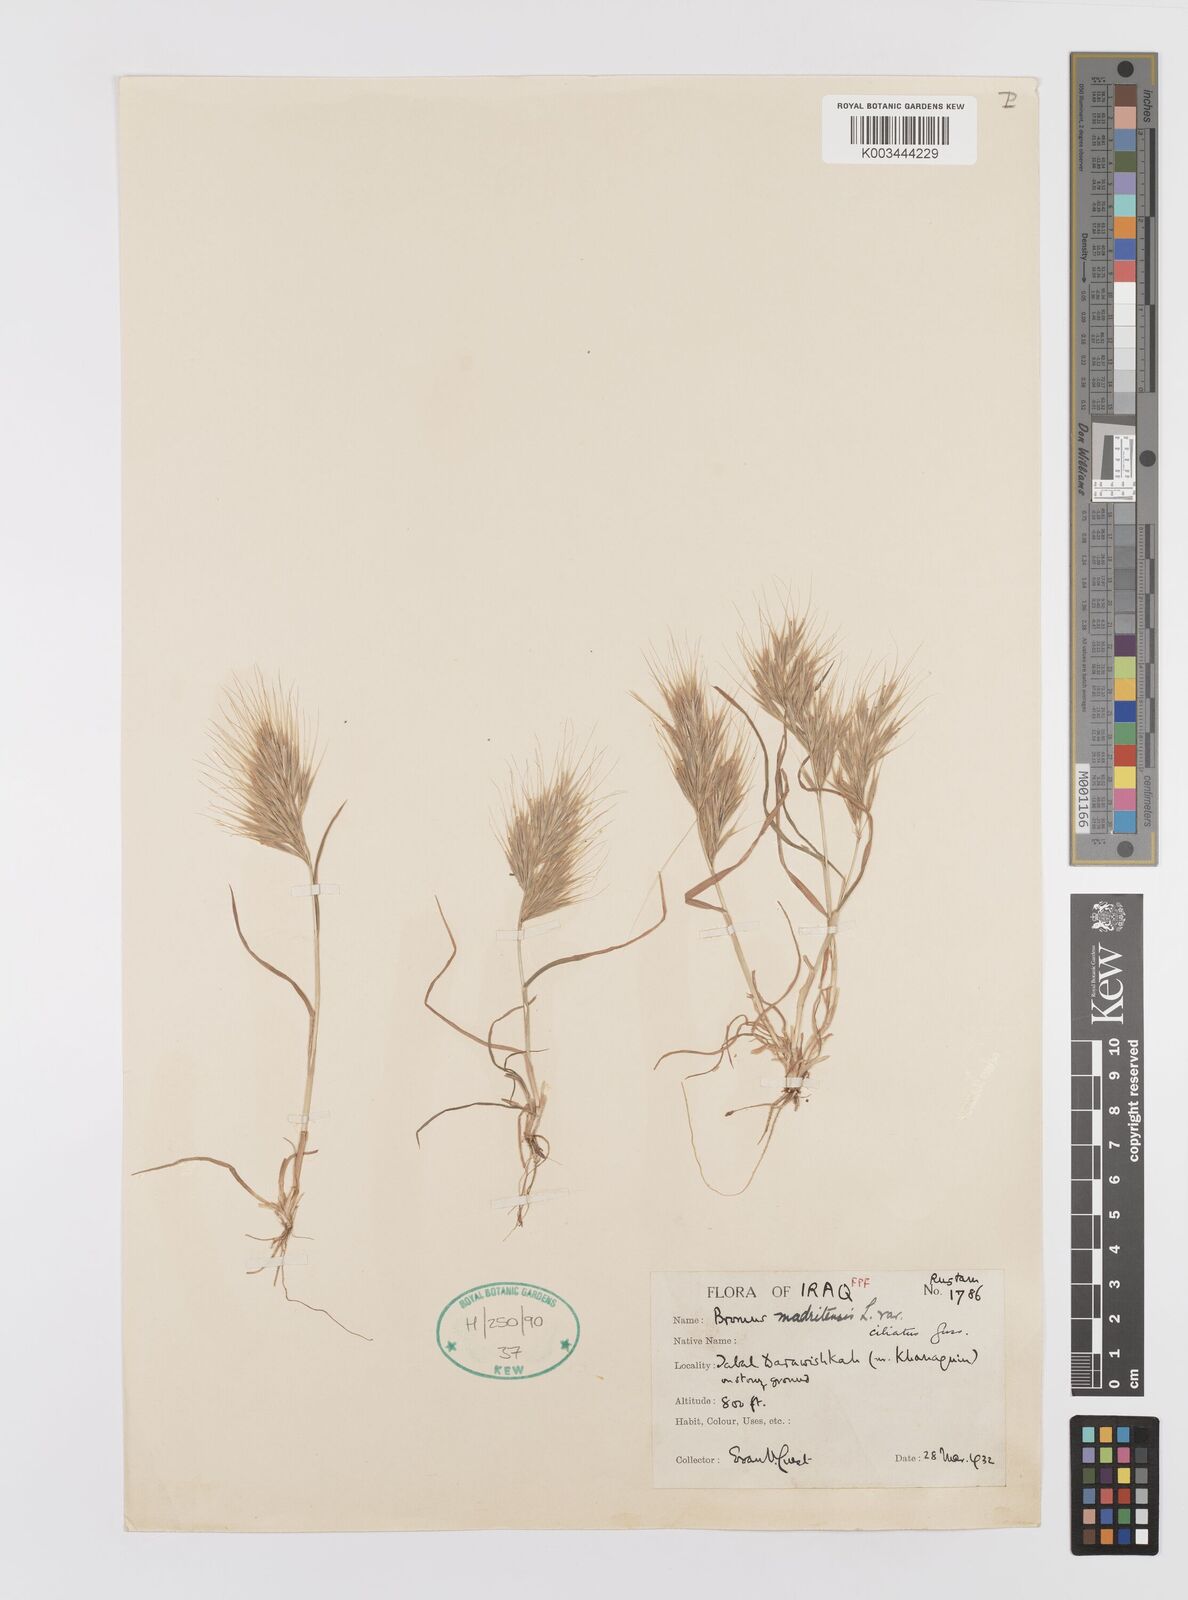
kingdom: Plantae
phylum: Tracheophyta
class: Liliopsida
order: Poales
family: Poaceae
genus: Bromus
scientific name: Bromus madritensis
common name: Compact brome
